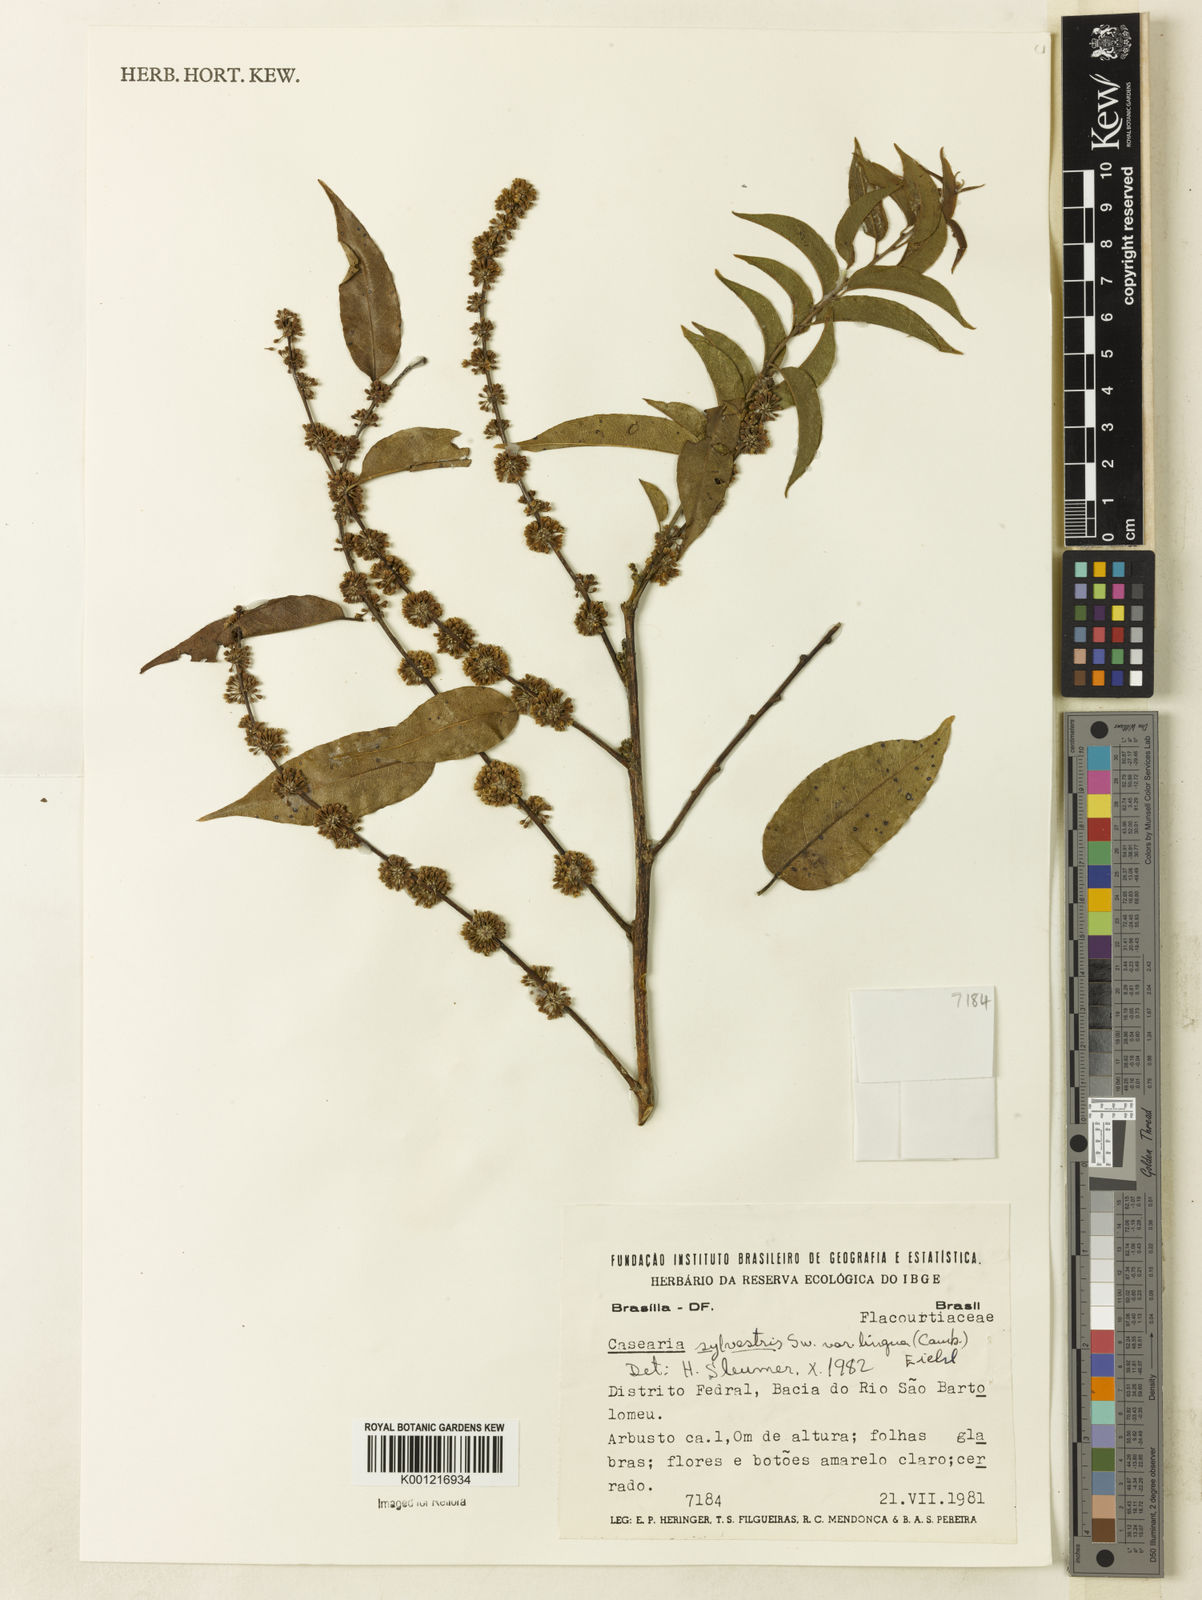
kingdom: Plantae
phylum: Tracheophyta
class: Magnoliopsida
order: Malpighiales
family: Salicaceae
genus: Casearia
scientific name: Casearia sylvestris
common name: Wild sage
